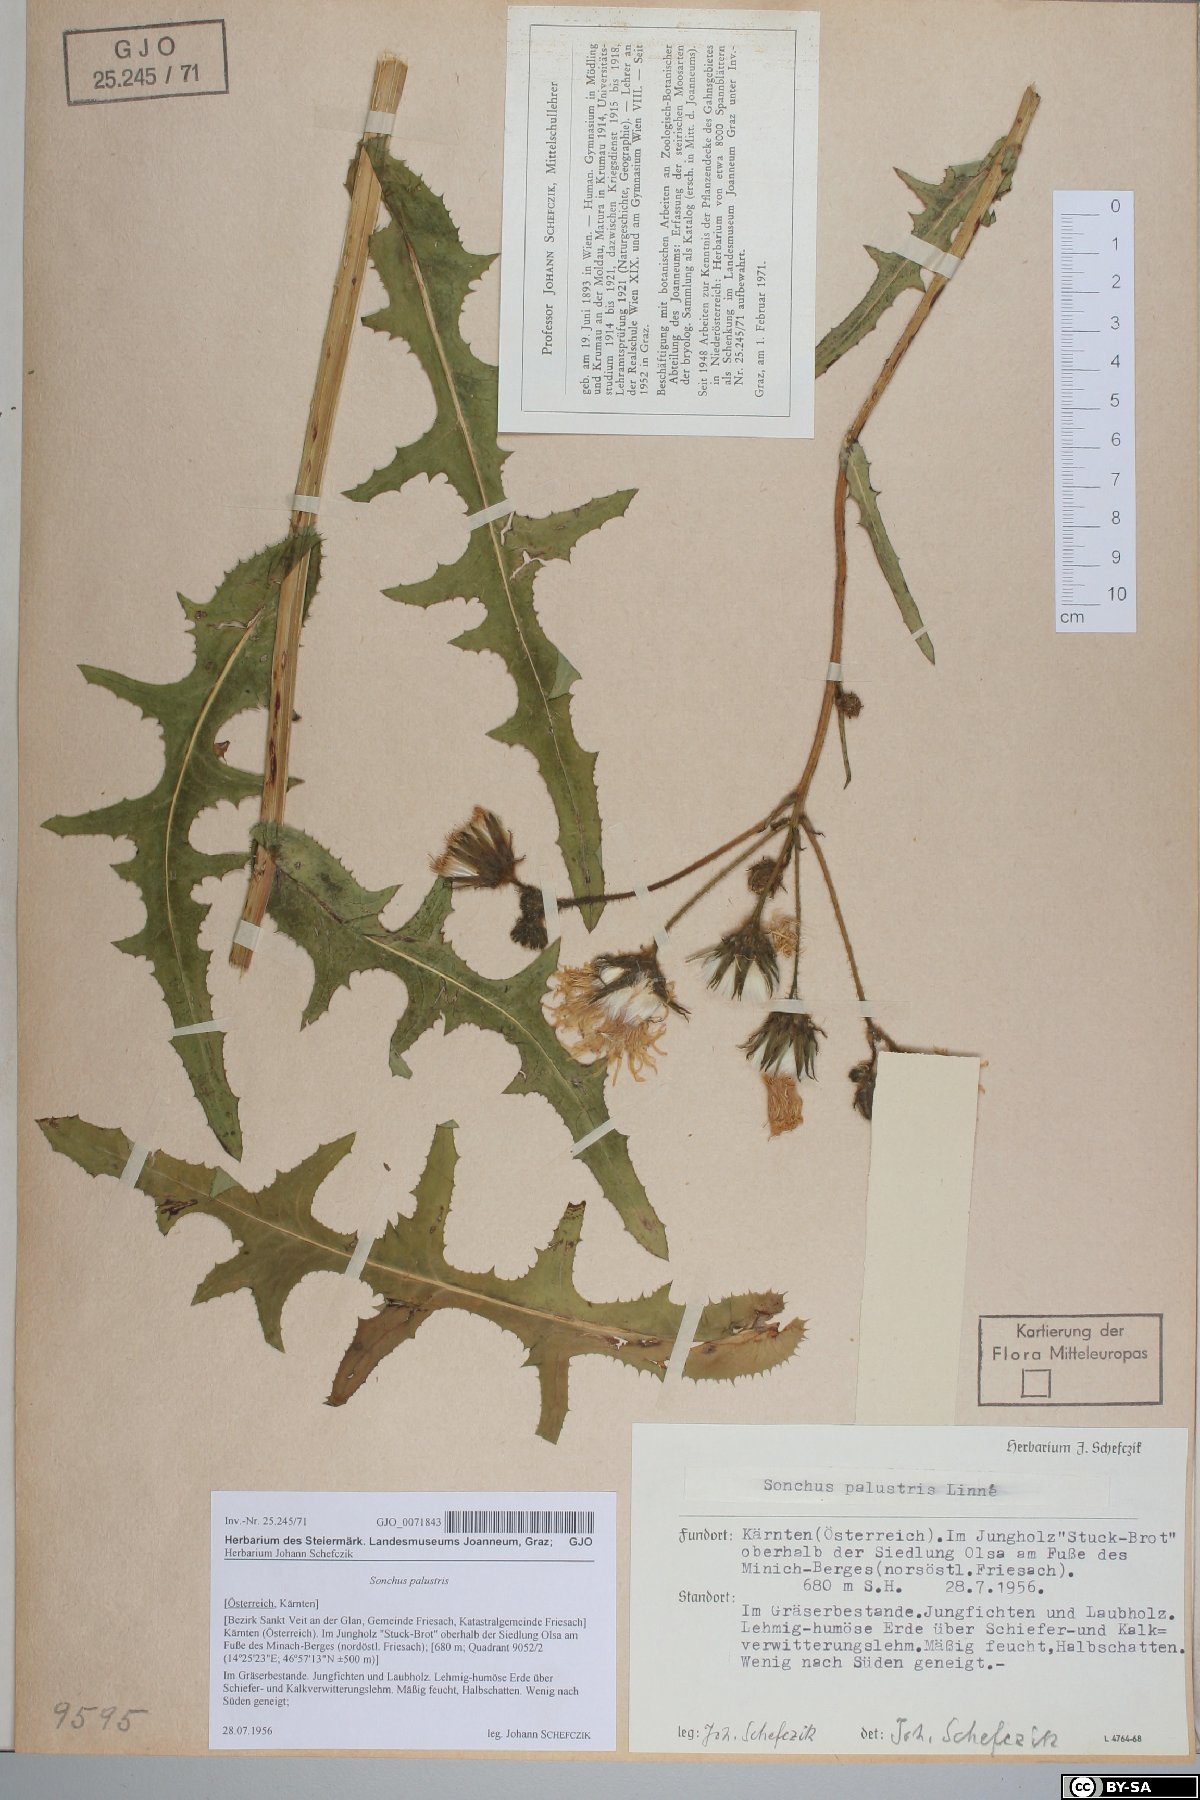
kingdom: Plantae
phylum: Tracheophyta
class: Magnoliopsida
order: Asterales
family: Asteraceae
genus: Sonchus
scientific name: Sonchus palustris
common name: Marsh sow-thistle
